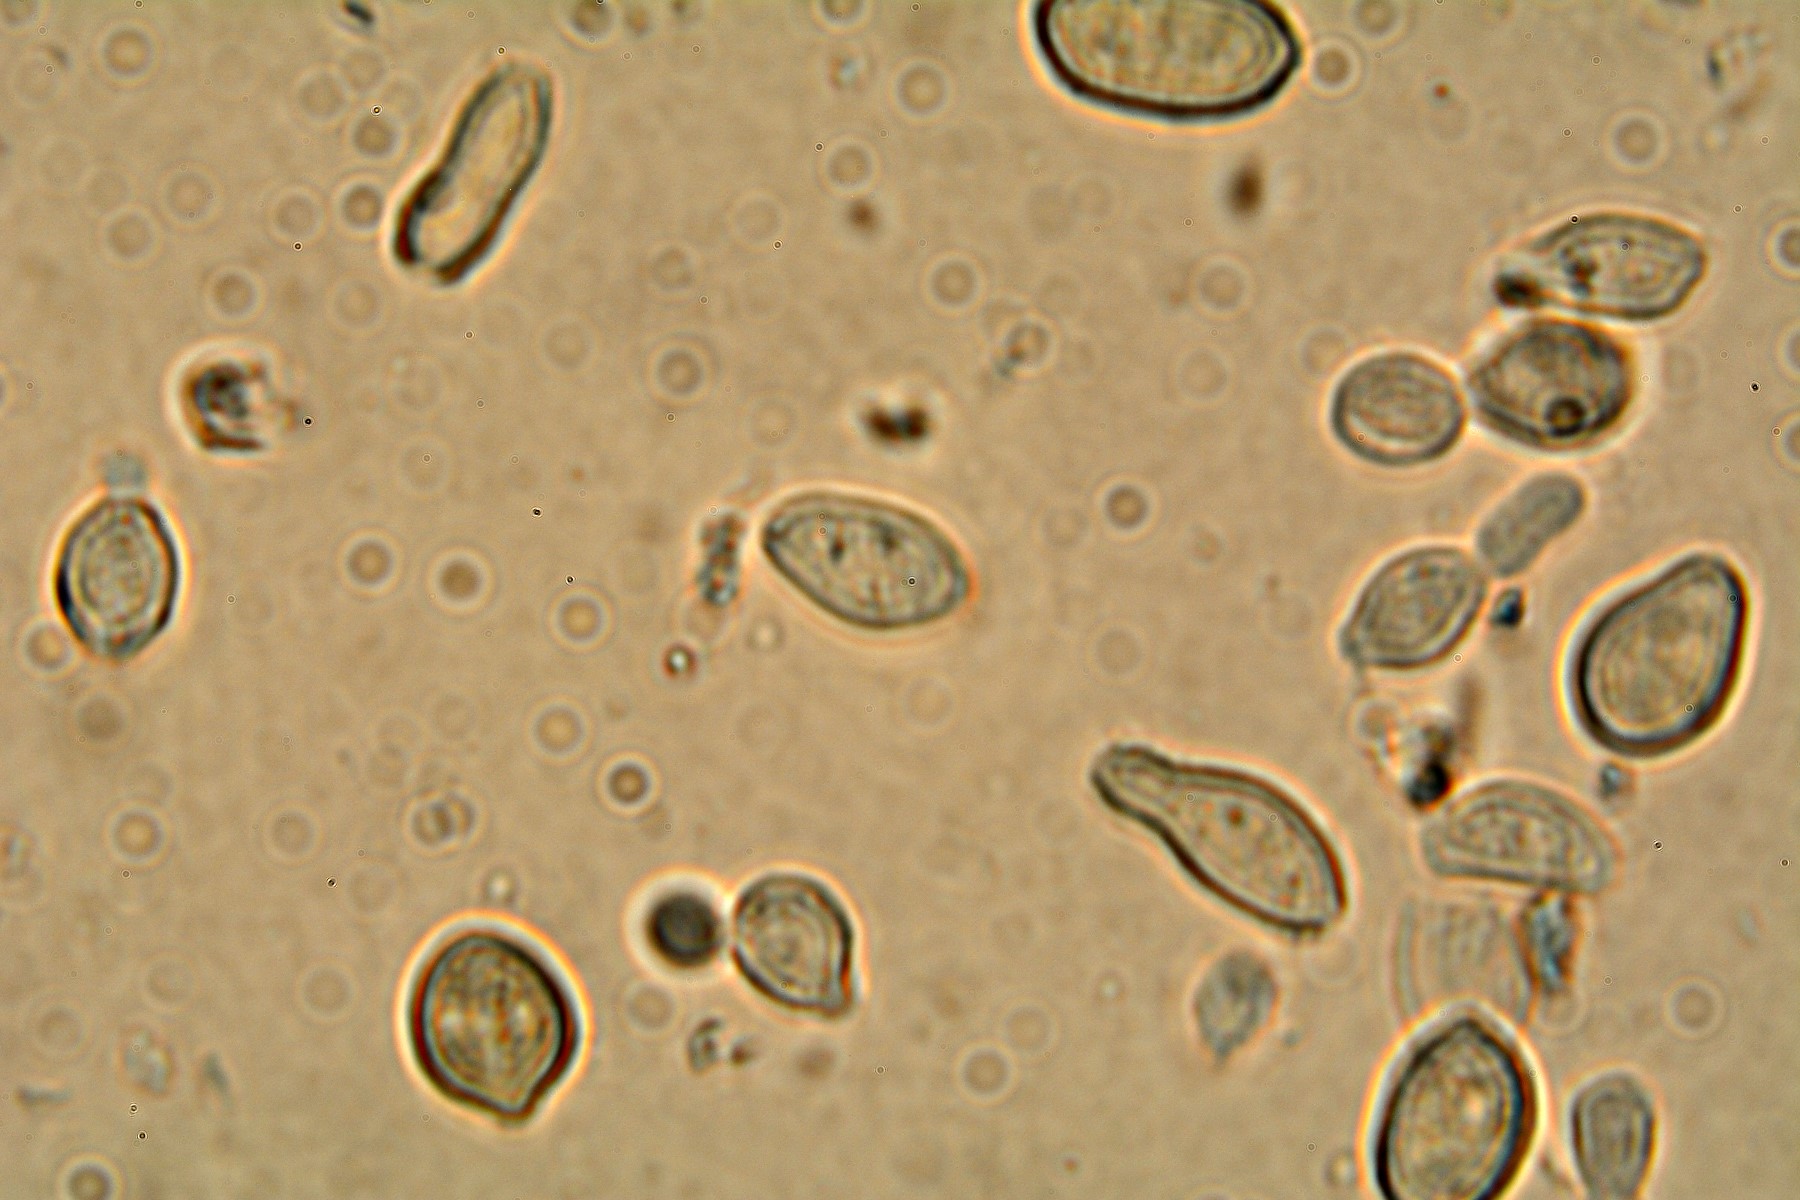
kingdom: Fungi
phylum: Ascomycota
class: Dothideomycetes
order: Pleosporales
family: Melanommataceae
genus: Seifertia
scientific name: Seifertia azaleae
